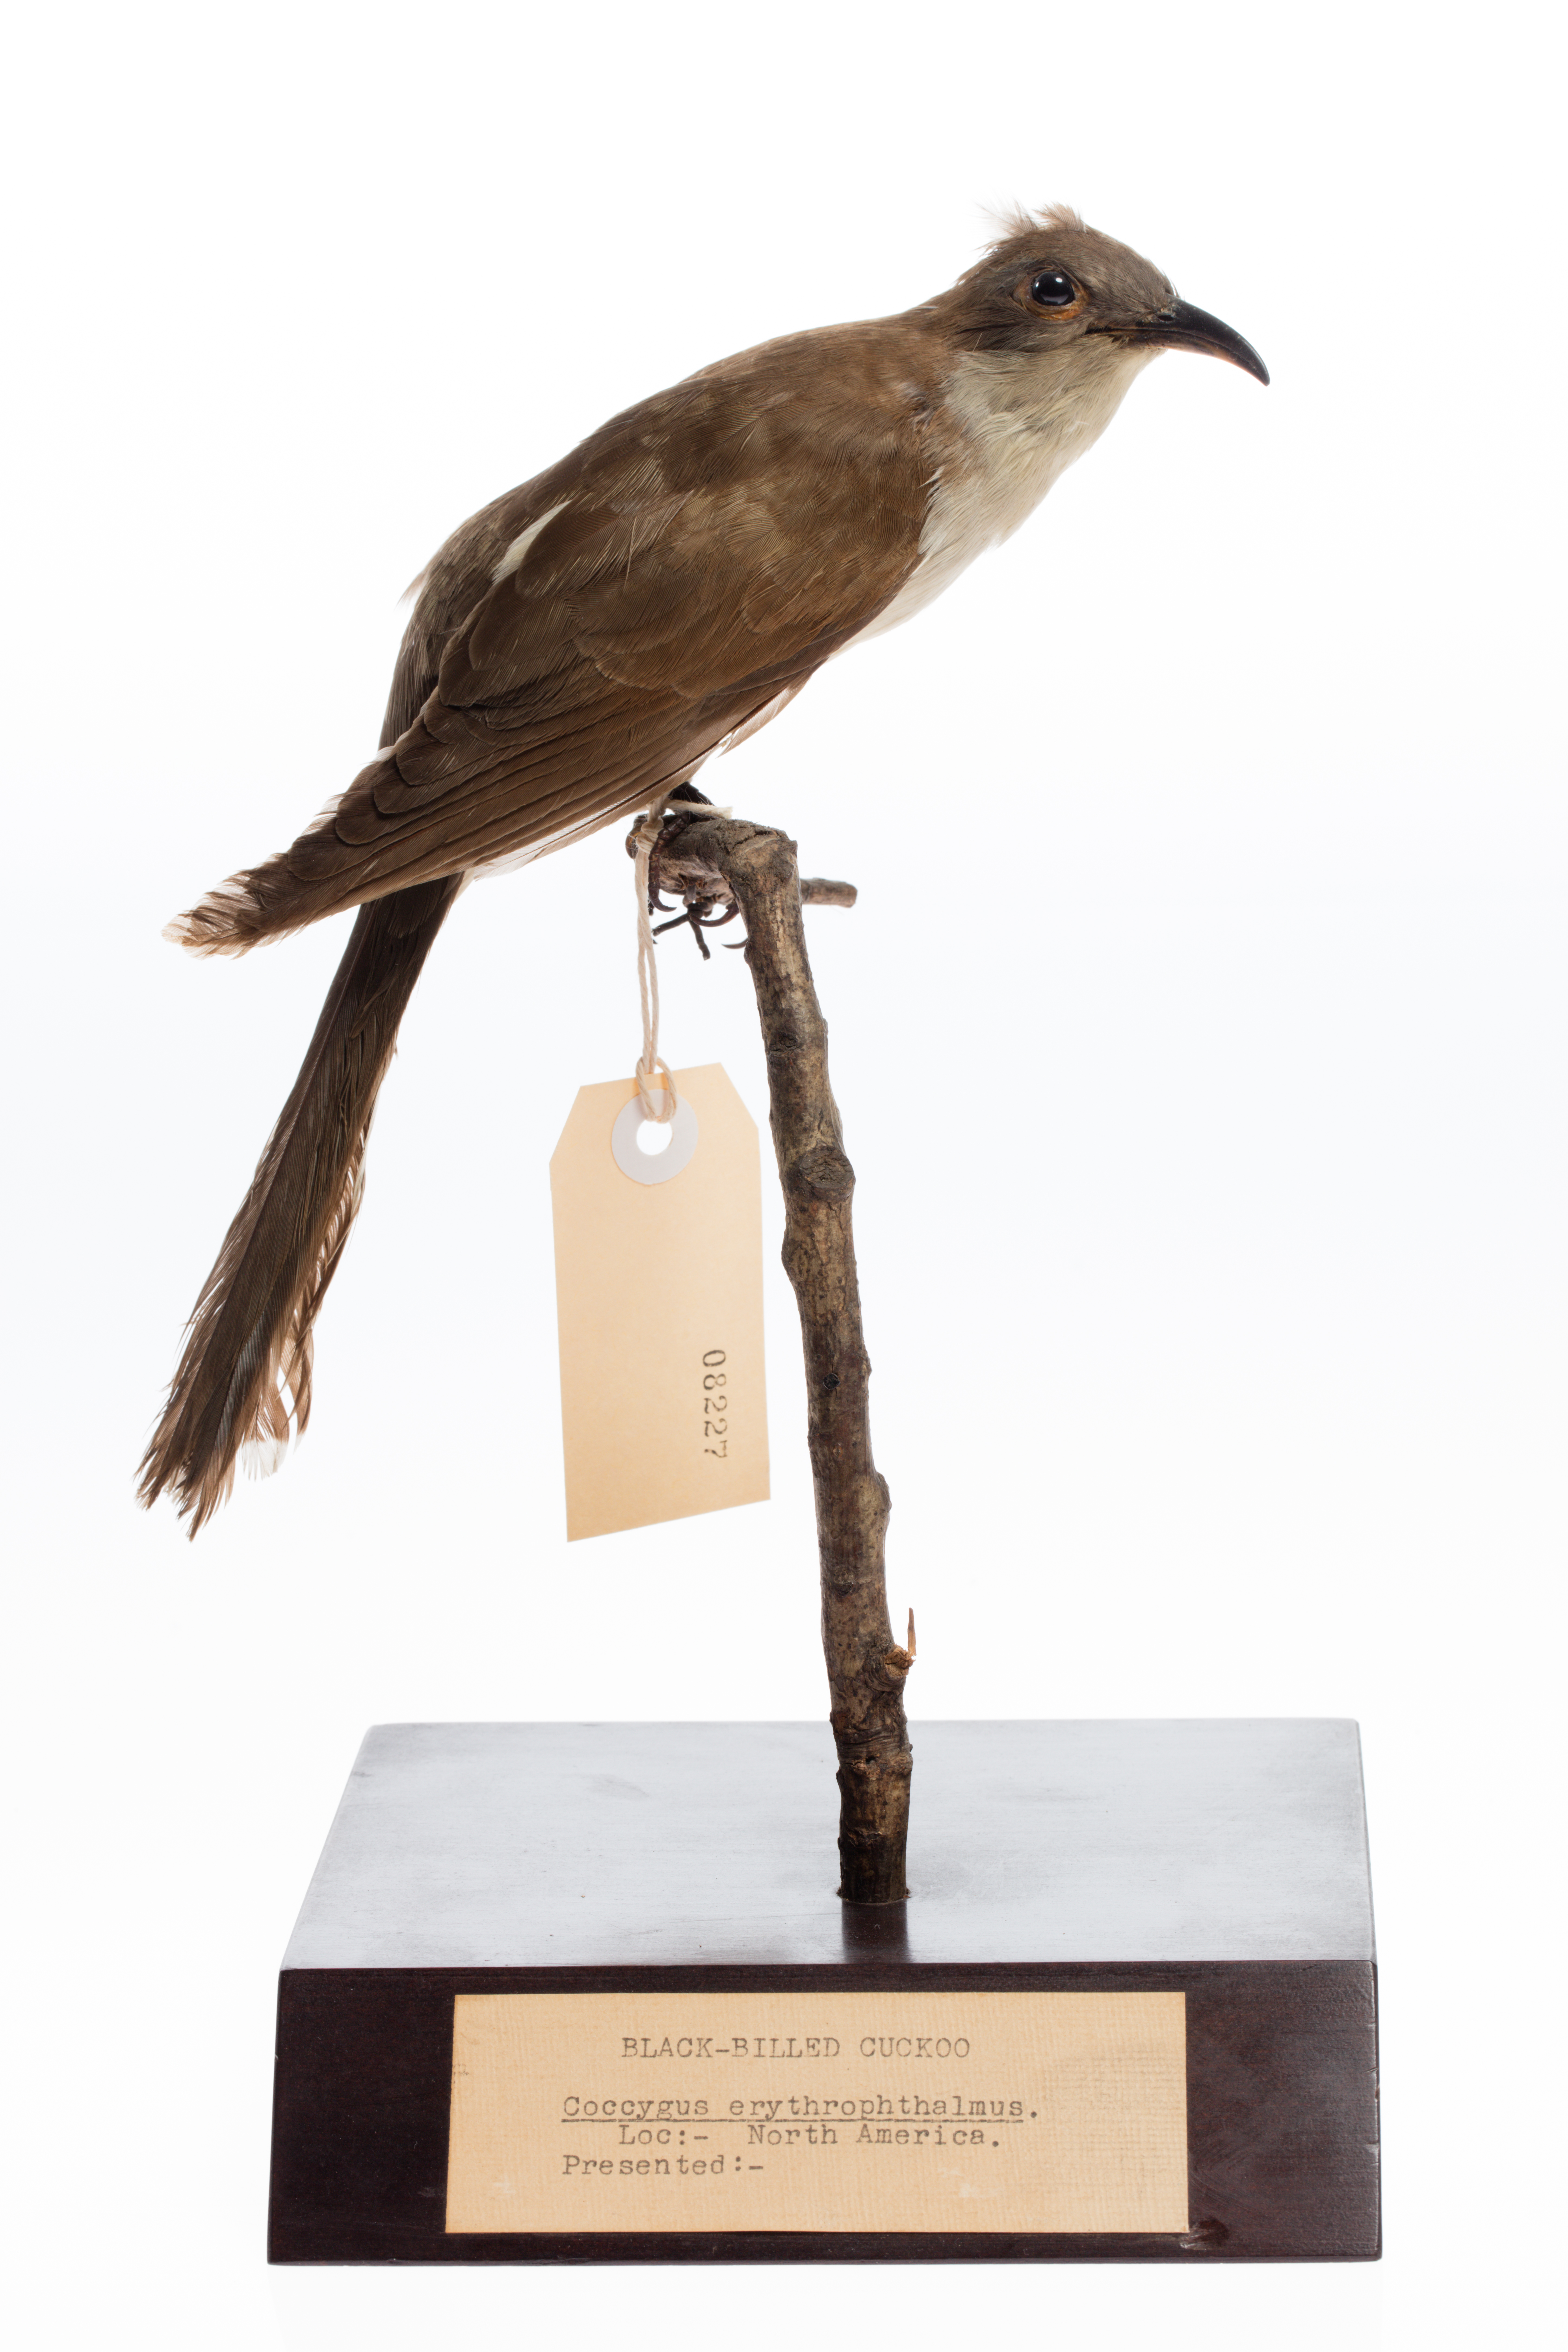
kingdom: Animalia
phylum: Chordata
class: Aves
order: Cuculiformes
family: Cuculidae
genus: Coccyzus
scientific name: Coccyzus erythropthalmus
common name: Black-billed cuckoo
